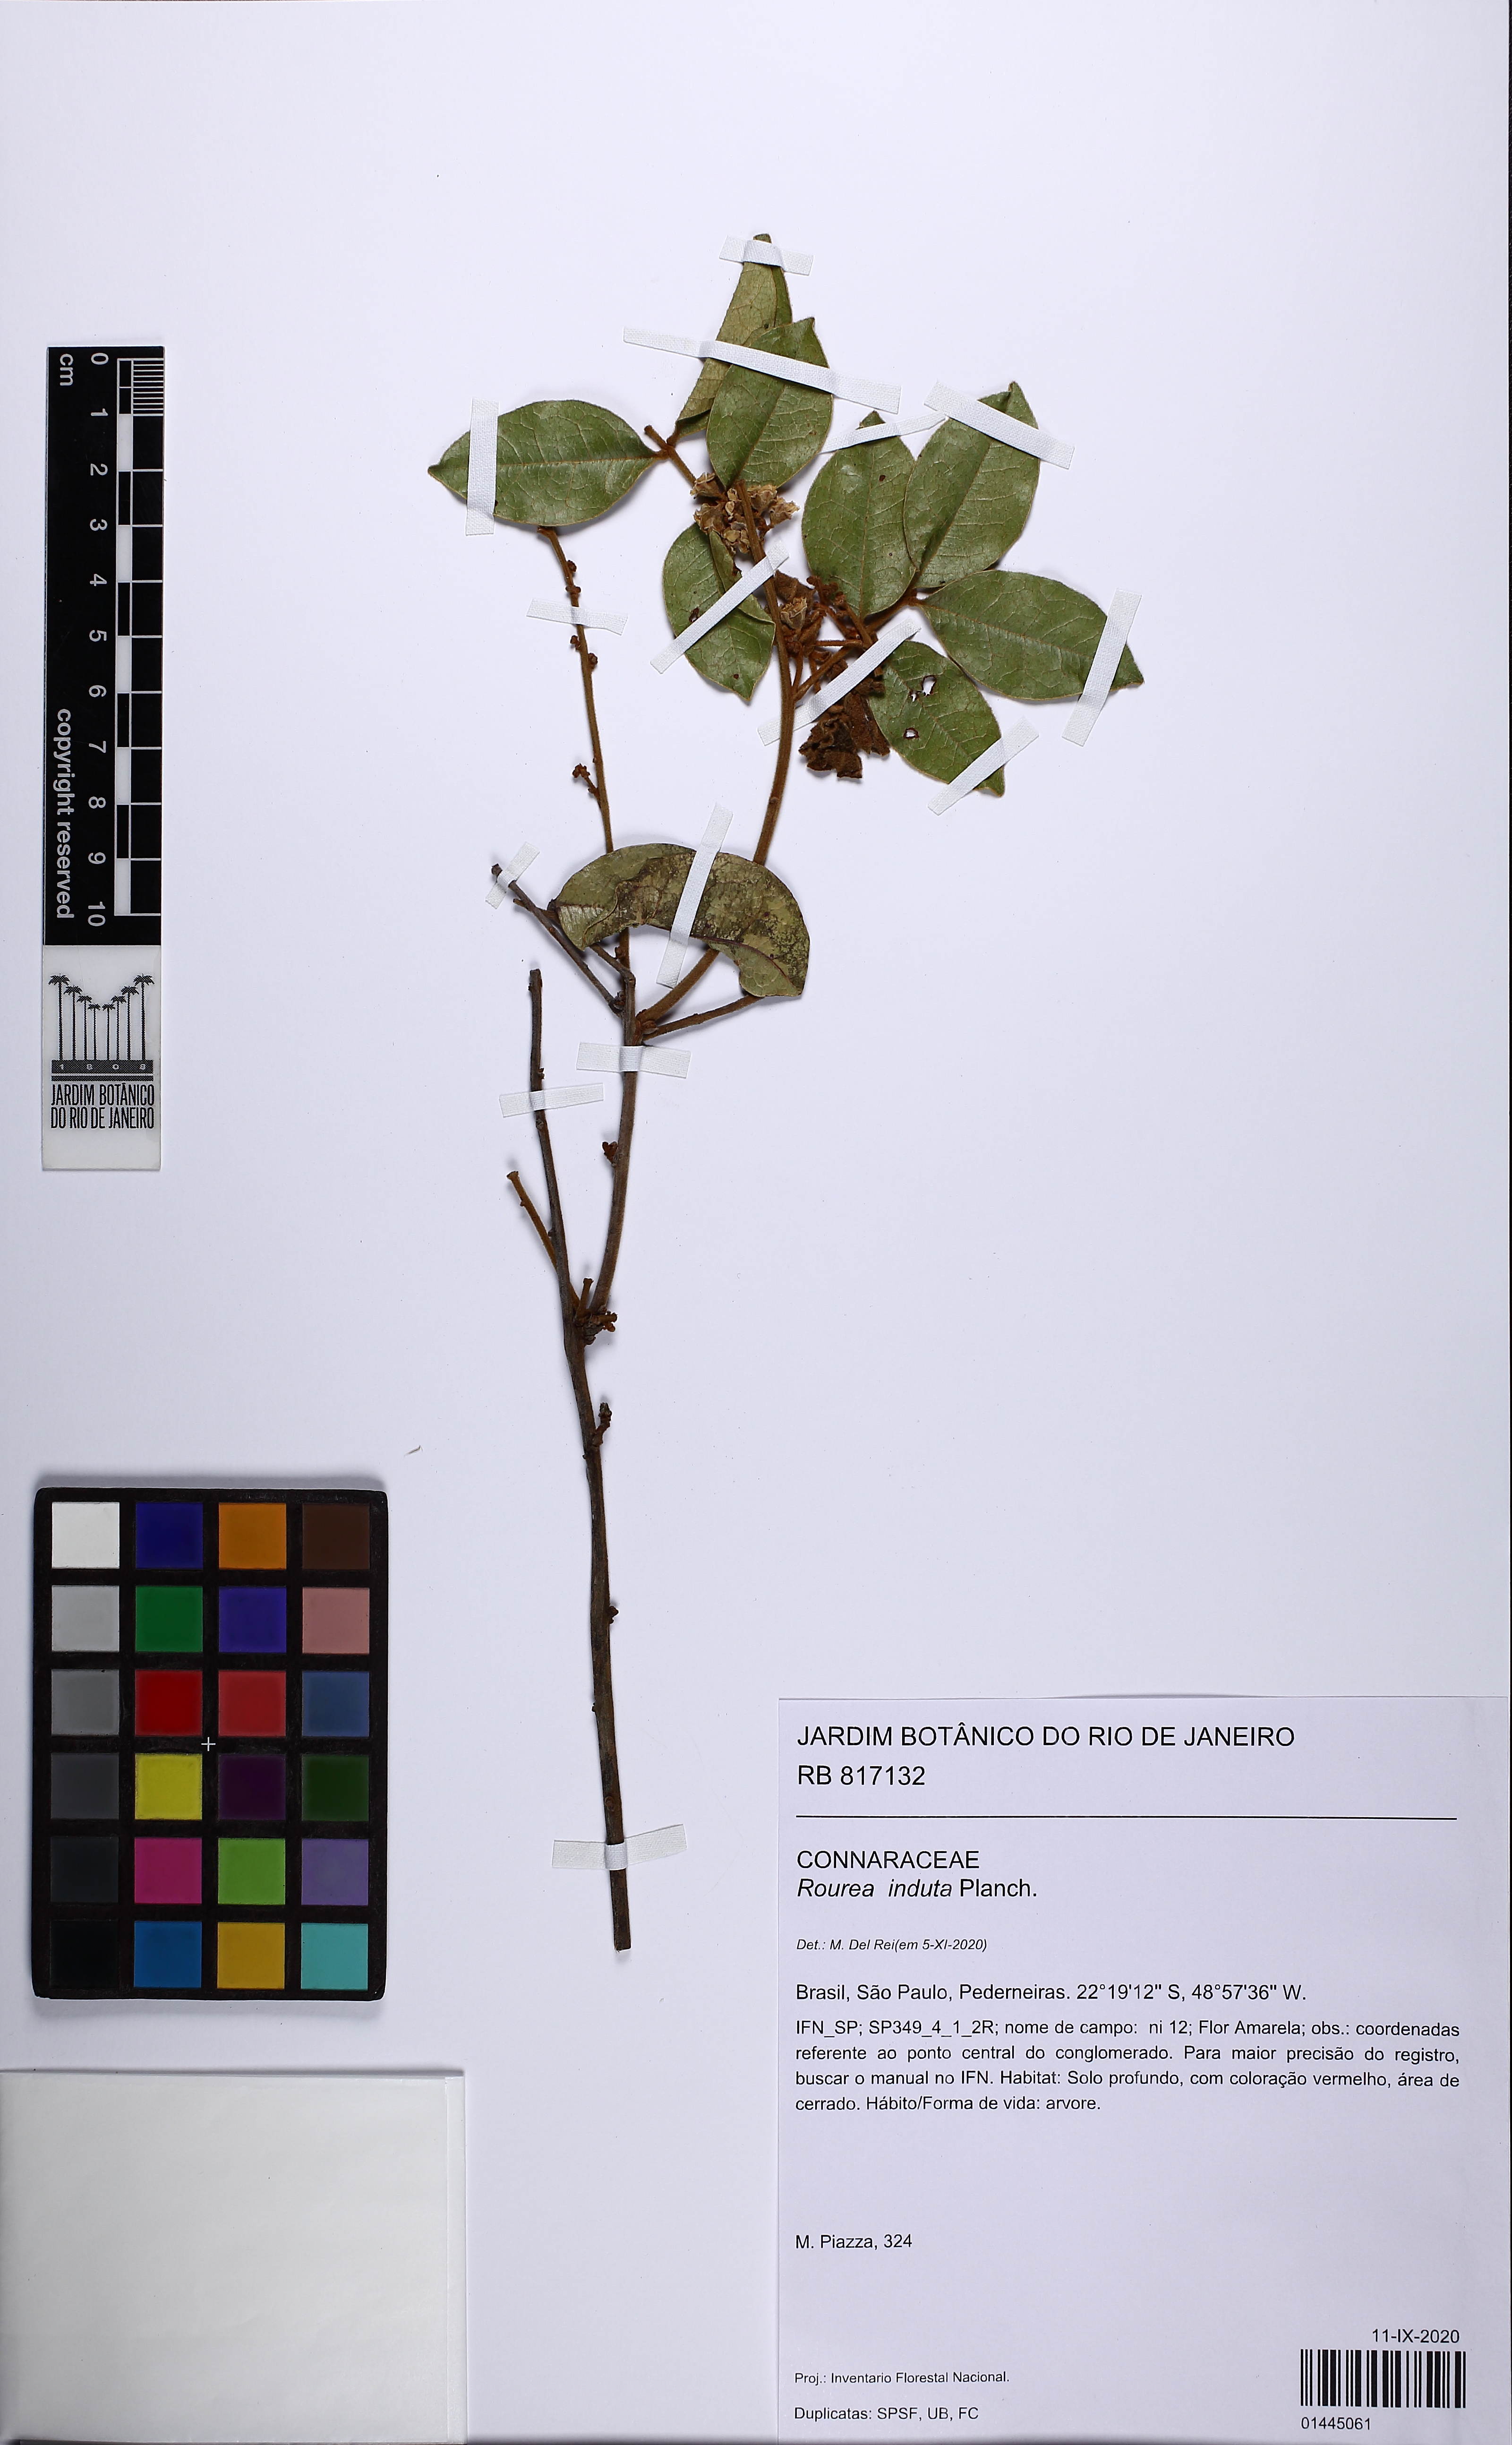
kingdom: Plantae
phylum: Tracheophyta
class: Magnoliopsida
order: Oxalidales
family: Connaraceae
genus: Rourea
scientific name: Rourea induta
